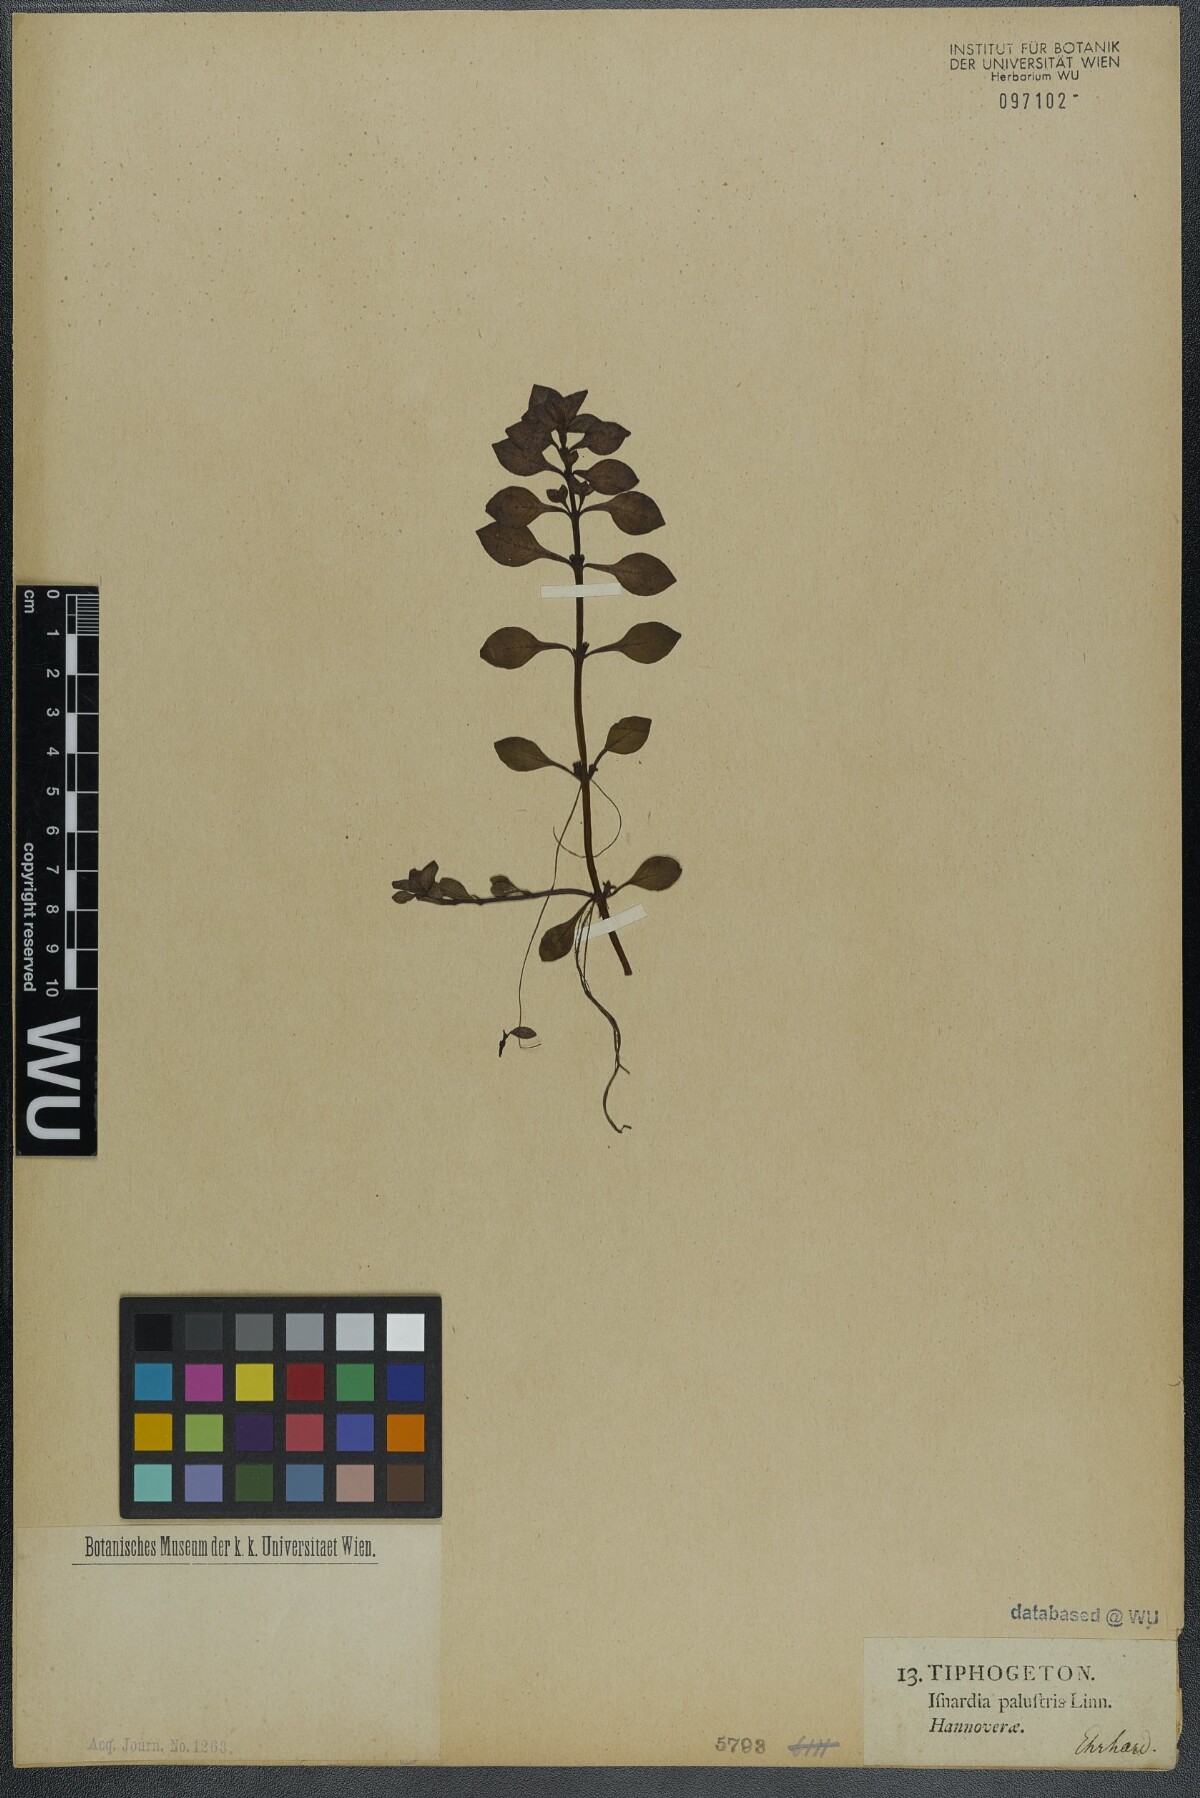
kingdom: Plantae
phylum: Tracheophyta
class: Magnoliopsida
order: Myrtales
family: Onagraceae
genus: Ludwigia
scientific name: Ludwigia palustris
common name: Hampshire-purslane
